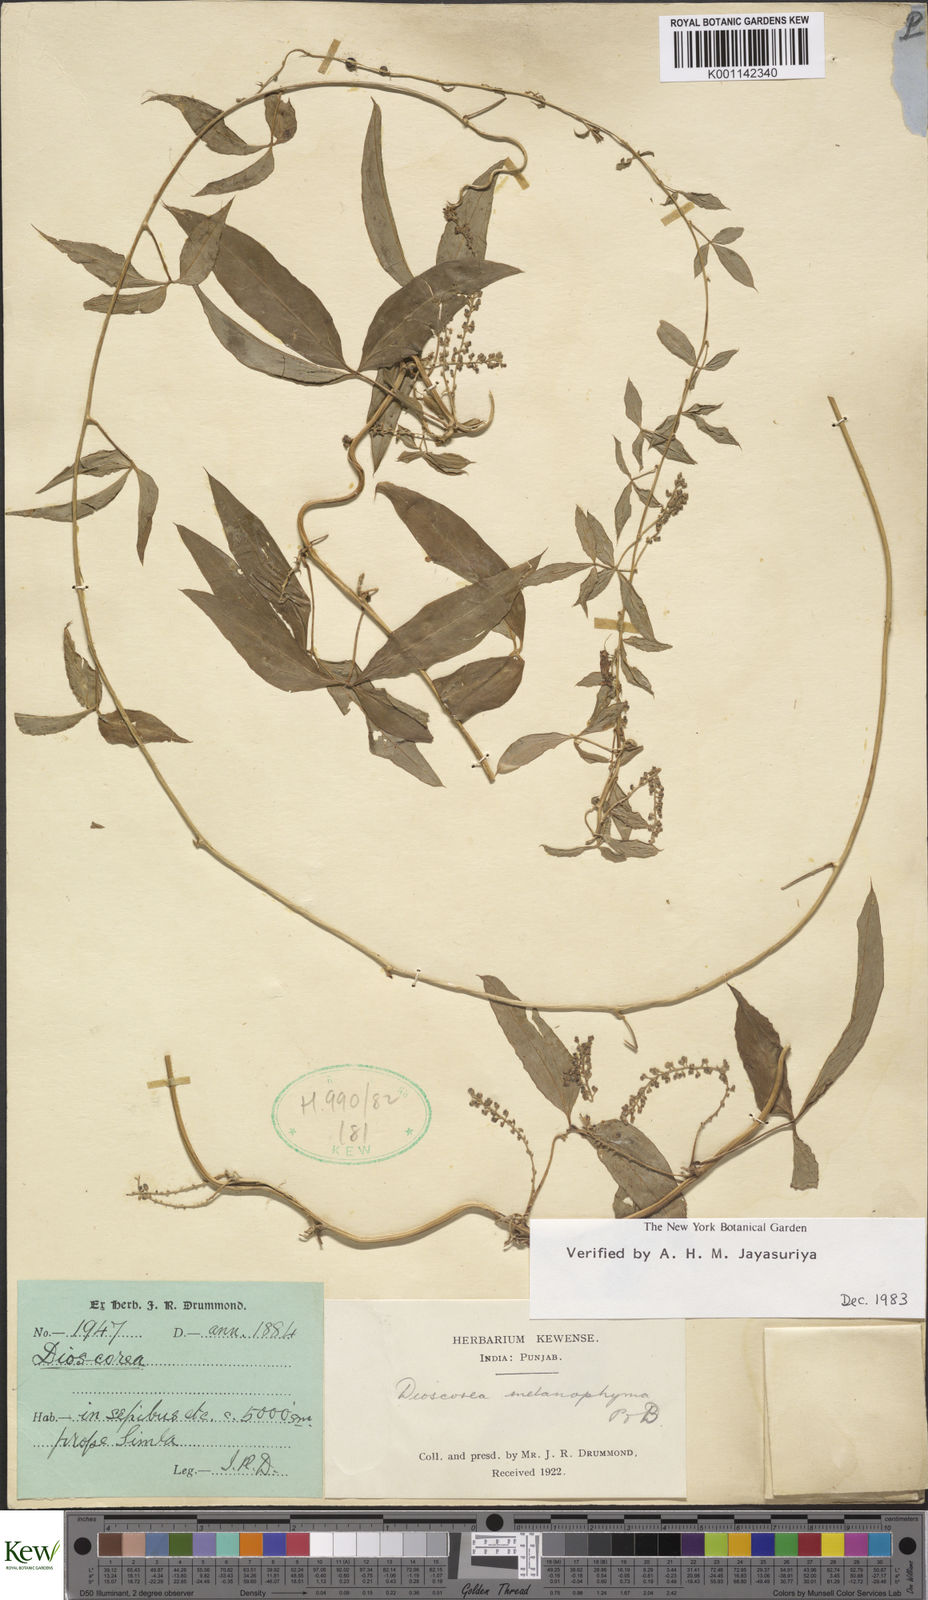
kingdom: Plantae
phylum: Tracheophyta
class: Liliopsida
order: Dioscoreales
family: Dioscoreaceae
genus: Dioscorea
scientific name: Dioscorea melanophyma
